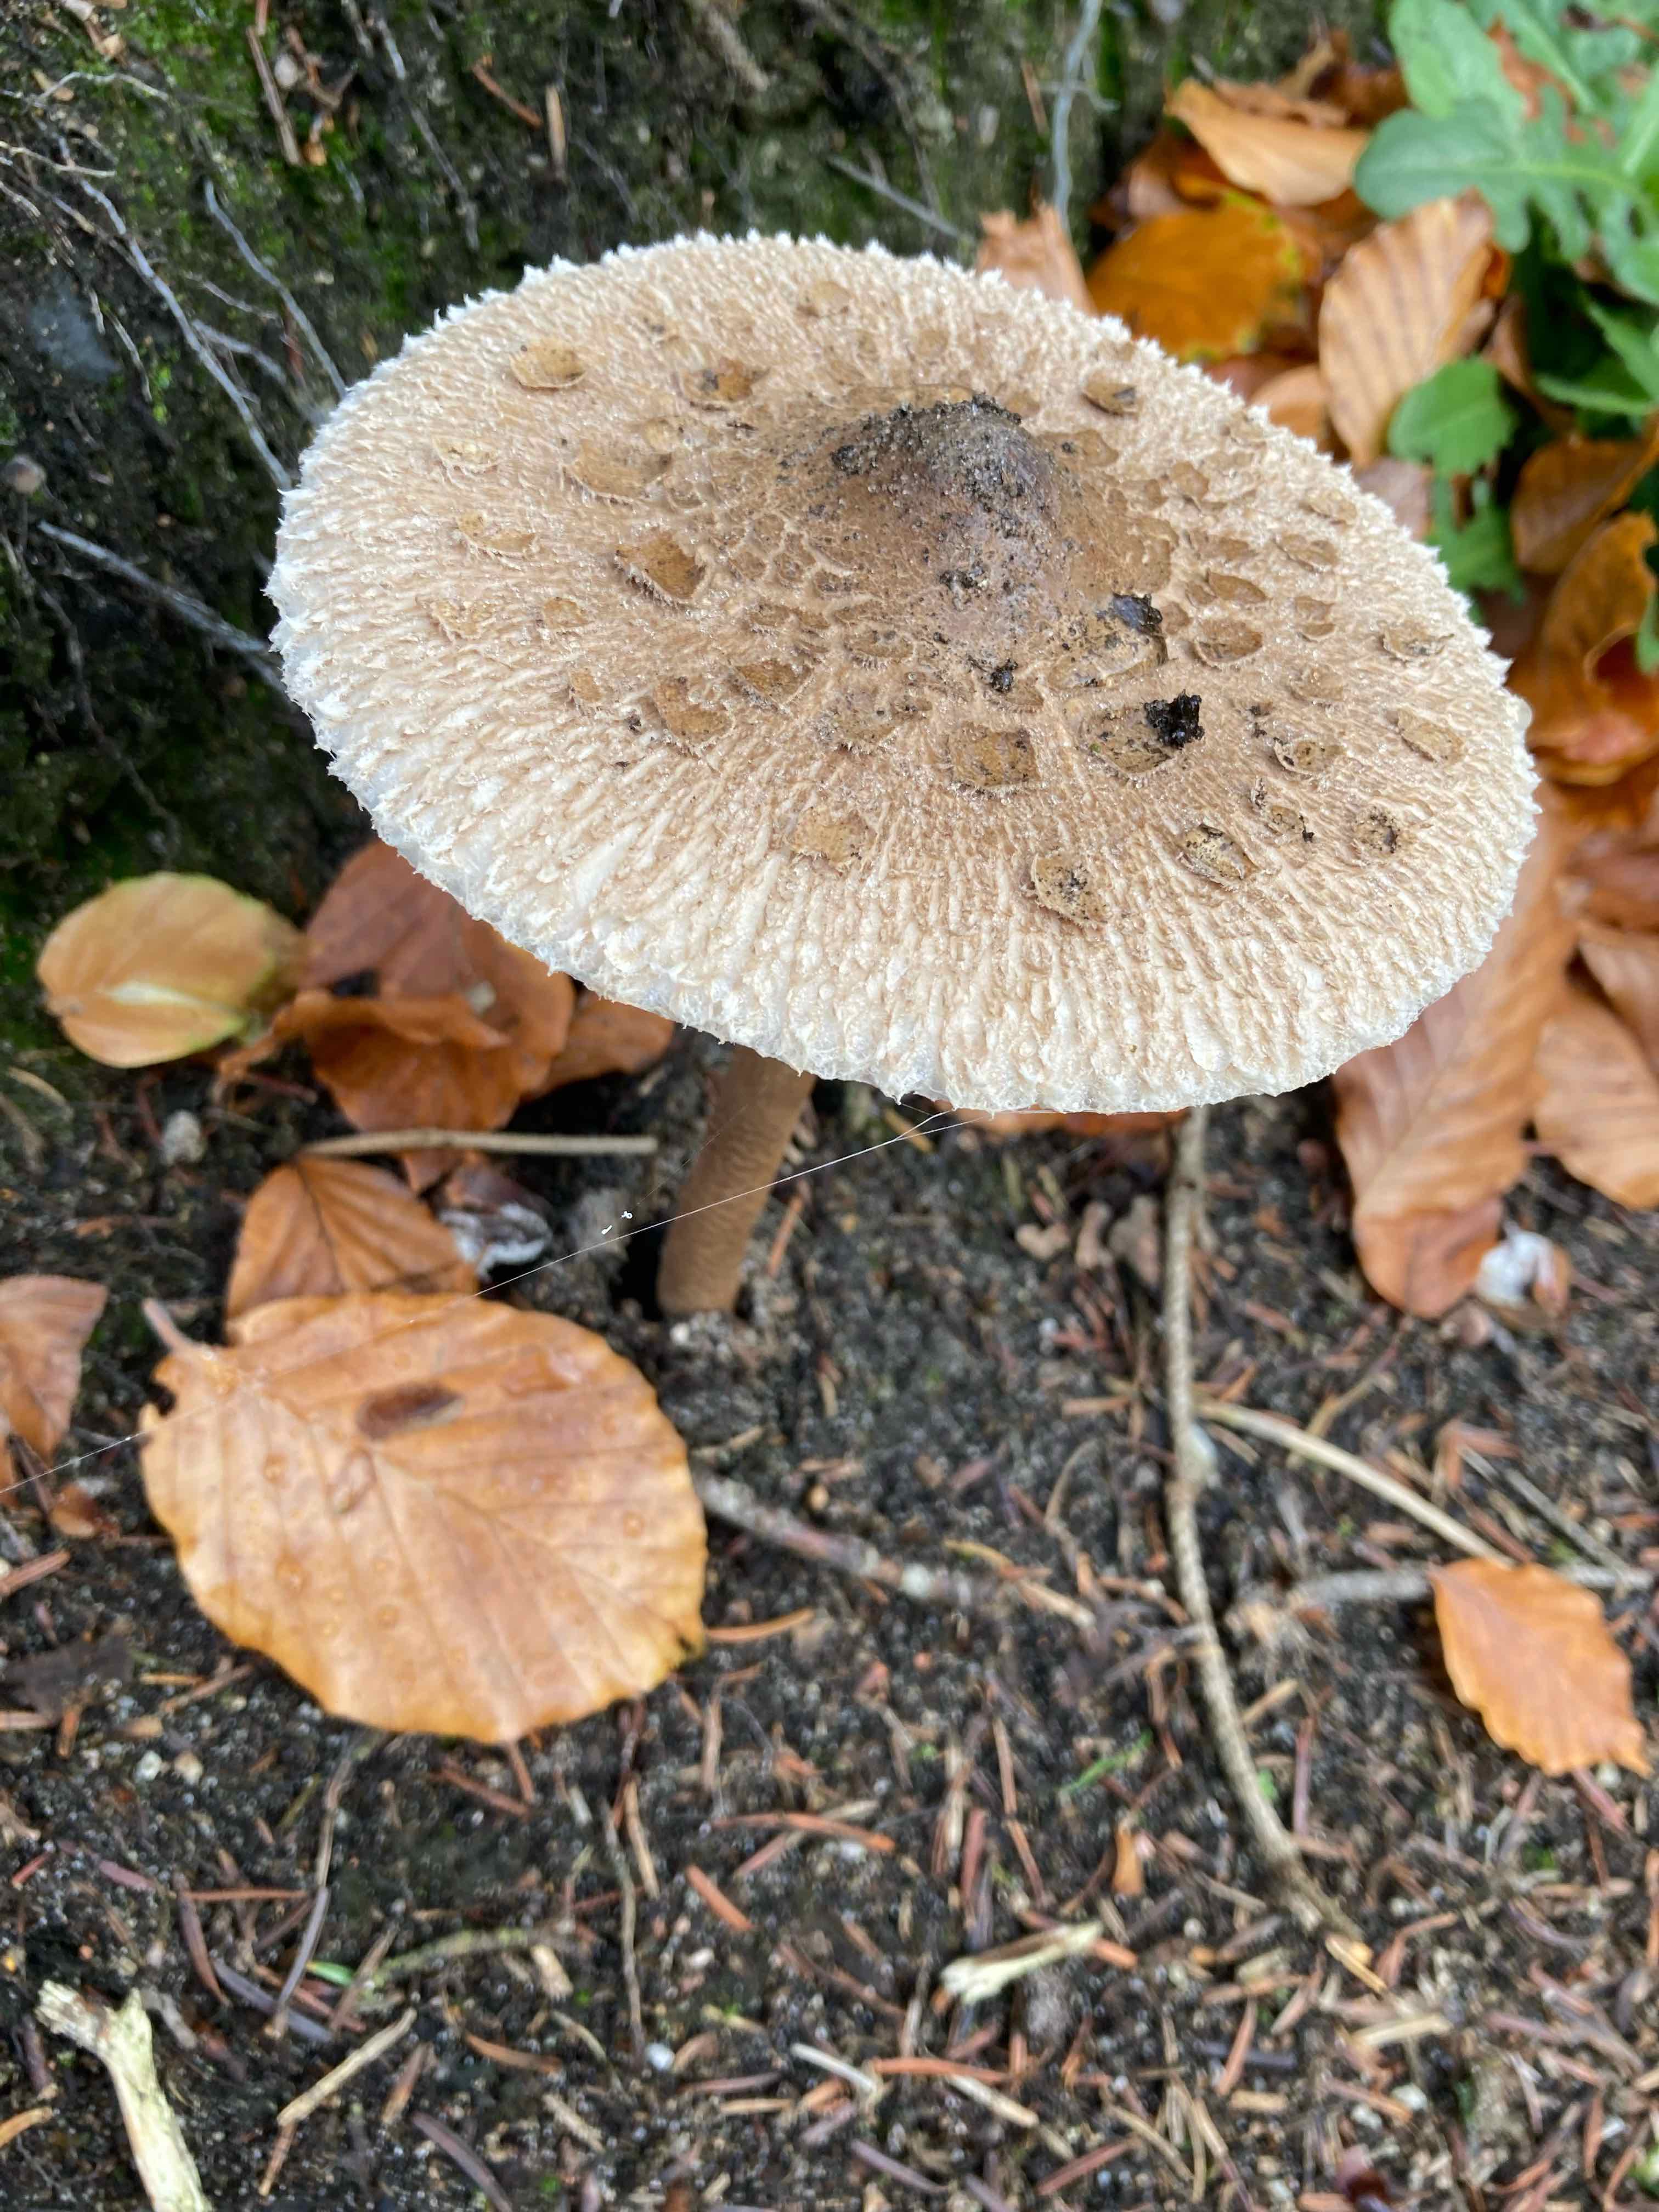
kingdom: Fungi
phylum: Basidiomycota
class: Agaricomycetes
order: Agaricales
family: Agaricaceae
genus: Macrolepiota
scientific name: Macrolepiota procera
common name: stor kæmpeparasolhat
